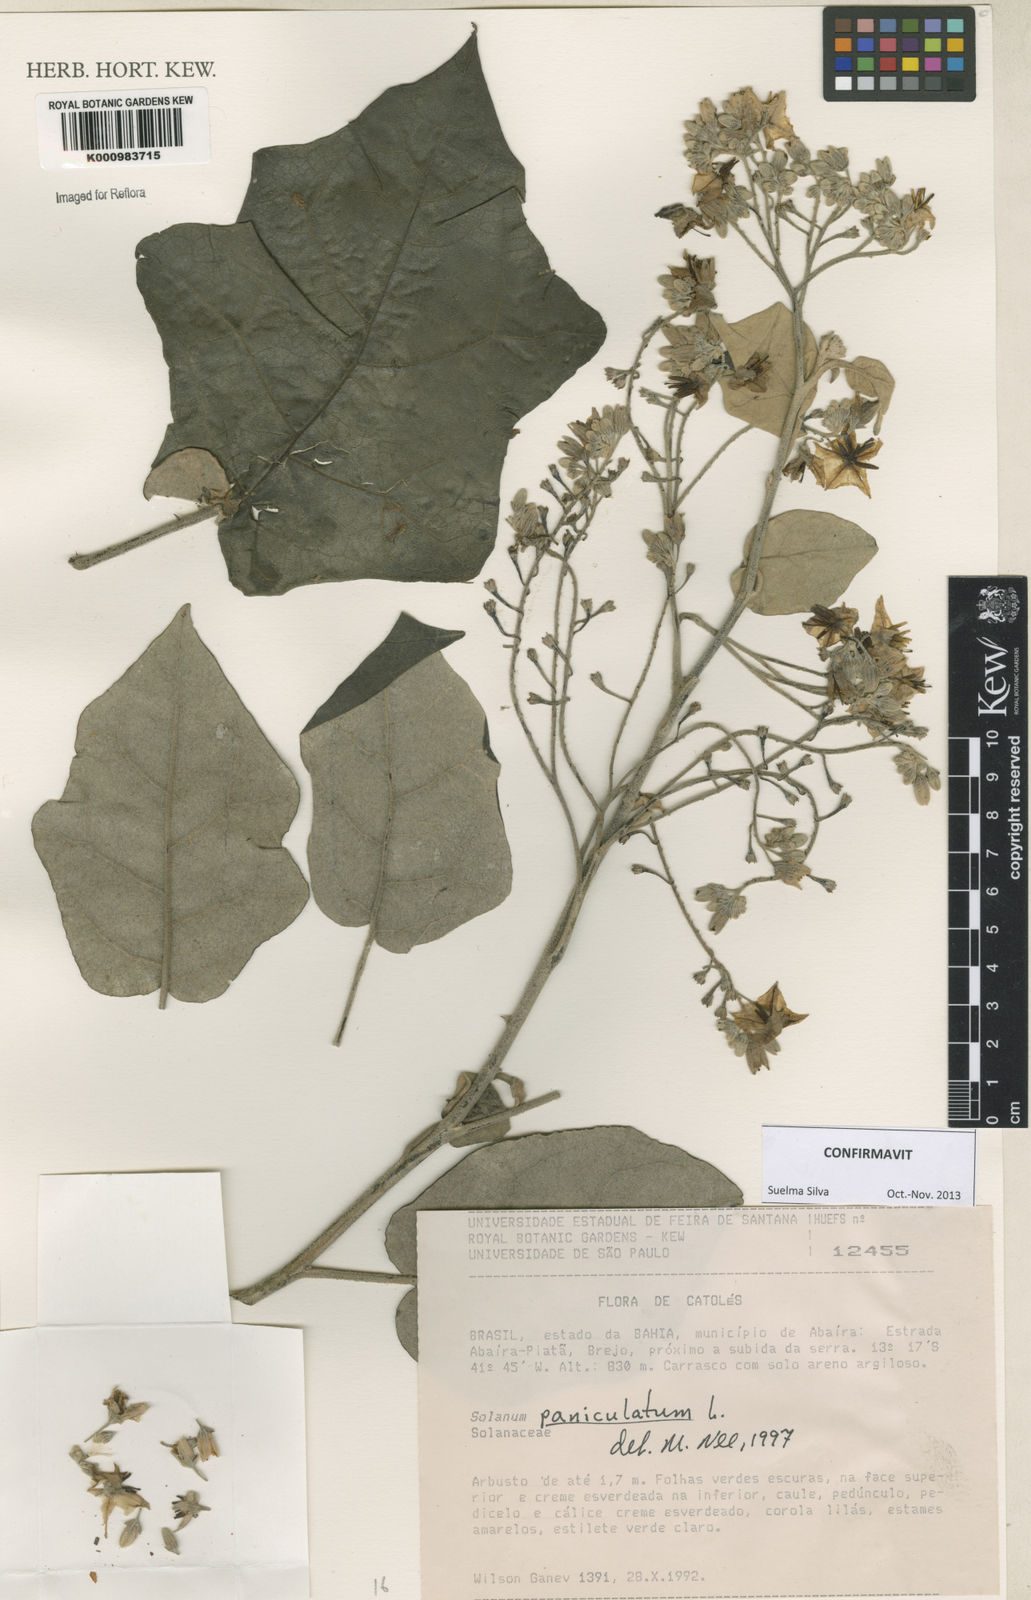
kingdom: Plantae
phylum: Tracheophyta
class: Magnoliopsida
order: Solanales
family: Solanaceae
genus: Solanum
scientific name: Solanum paniculatum
